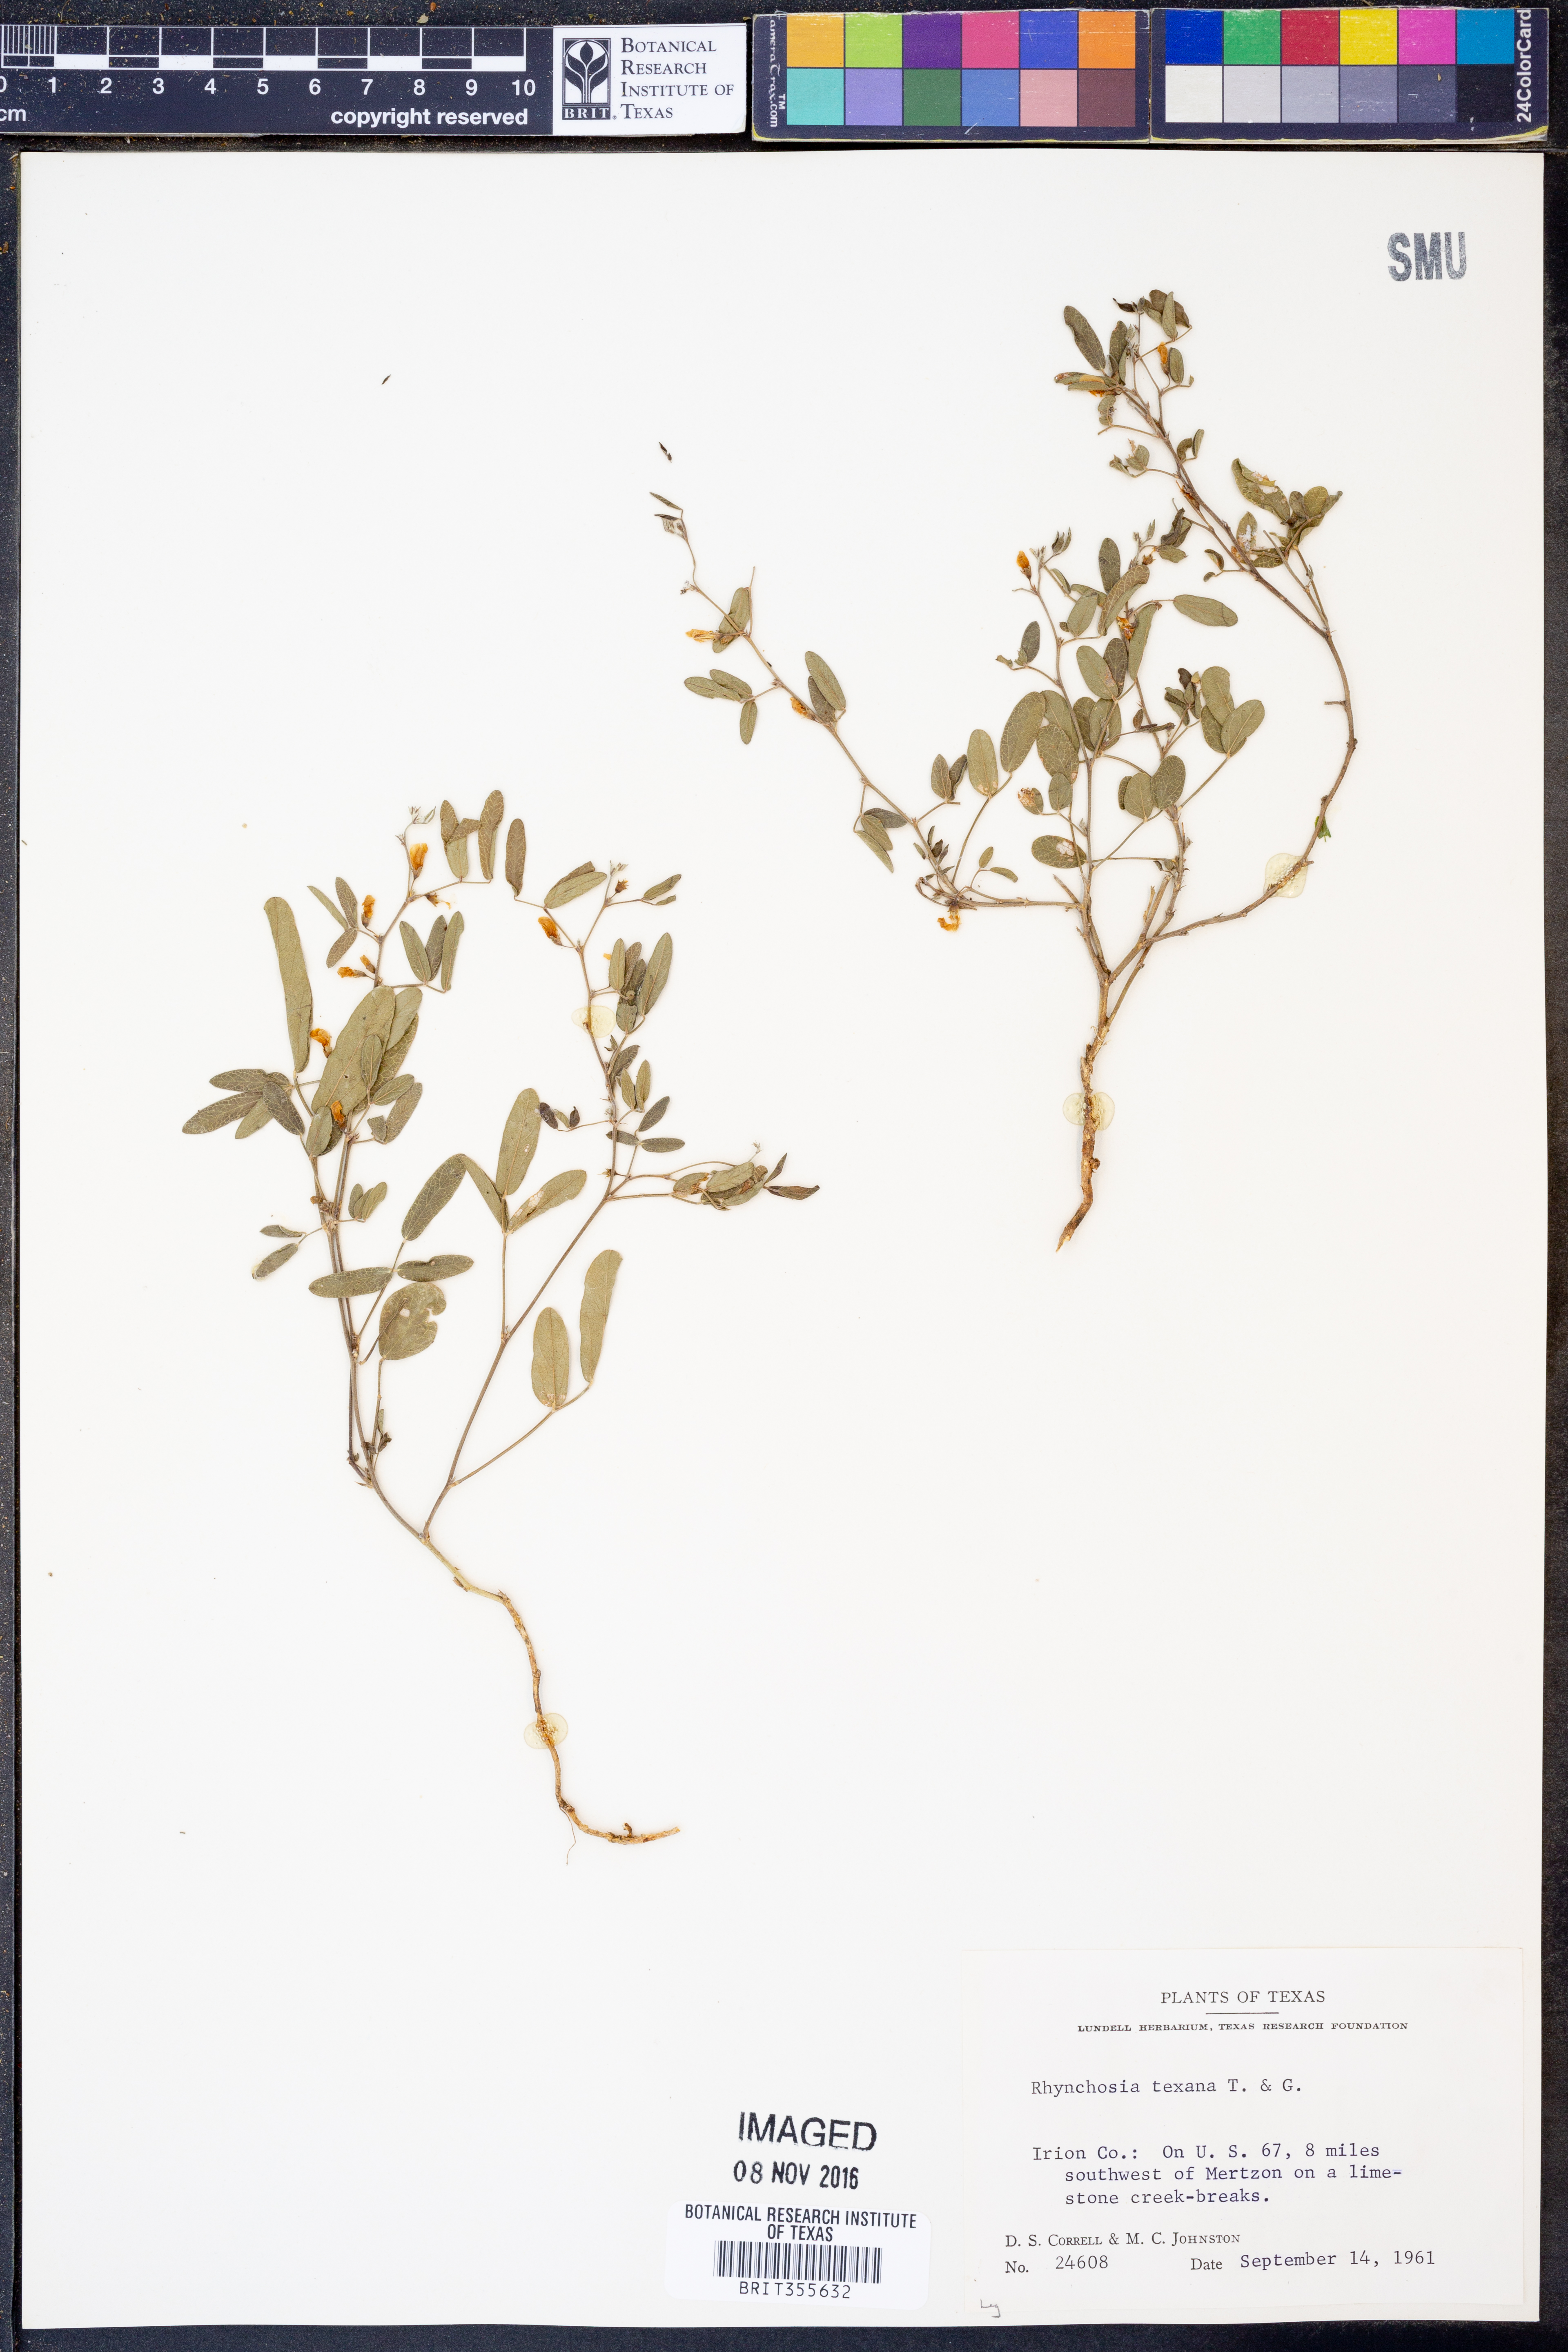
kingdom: Plantae
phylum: Tracheophyta
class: Magnoliopsida
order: Fabales
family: Fabaceae
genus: Rhynchosia
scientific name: Rhynchosia senna
